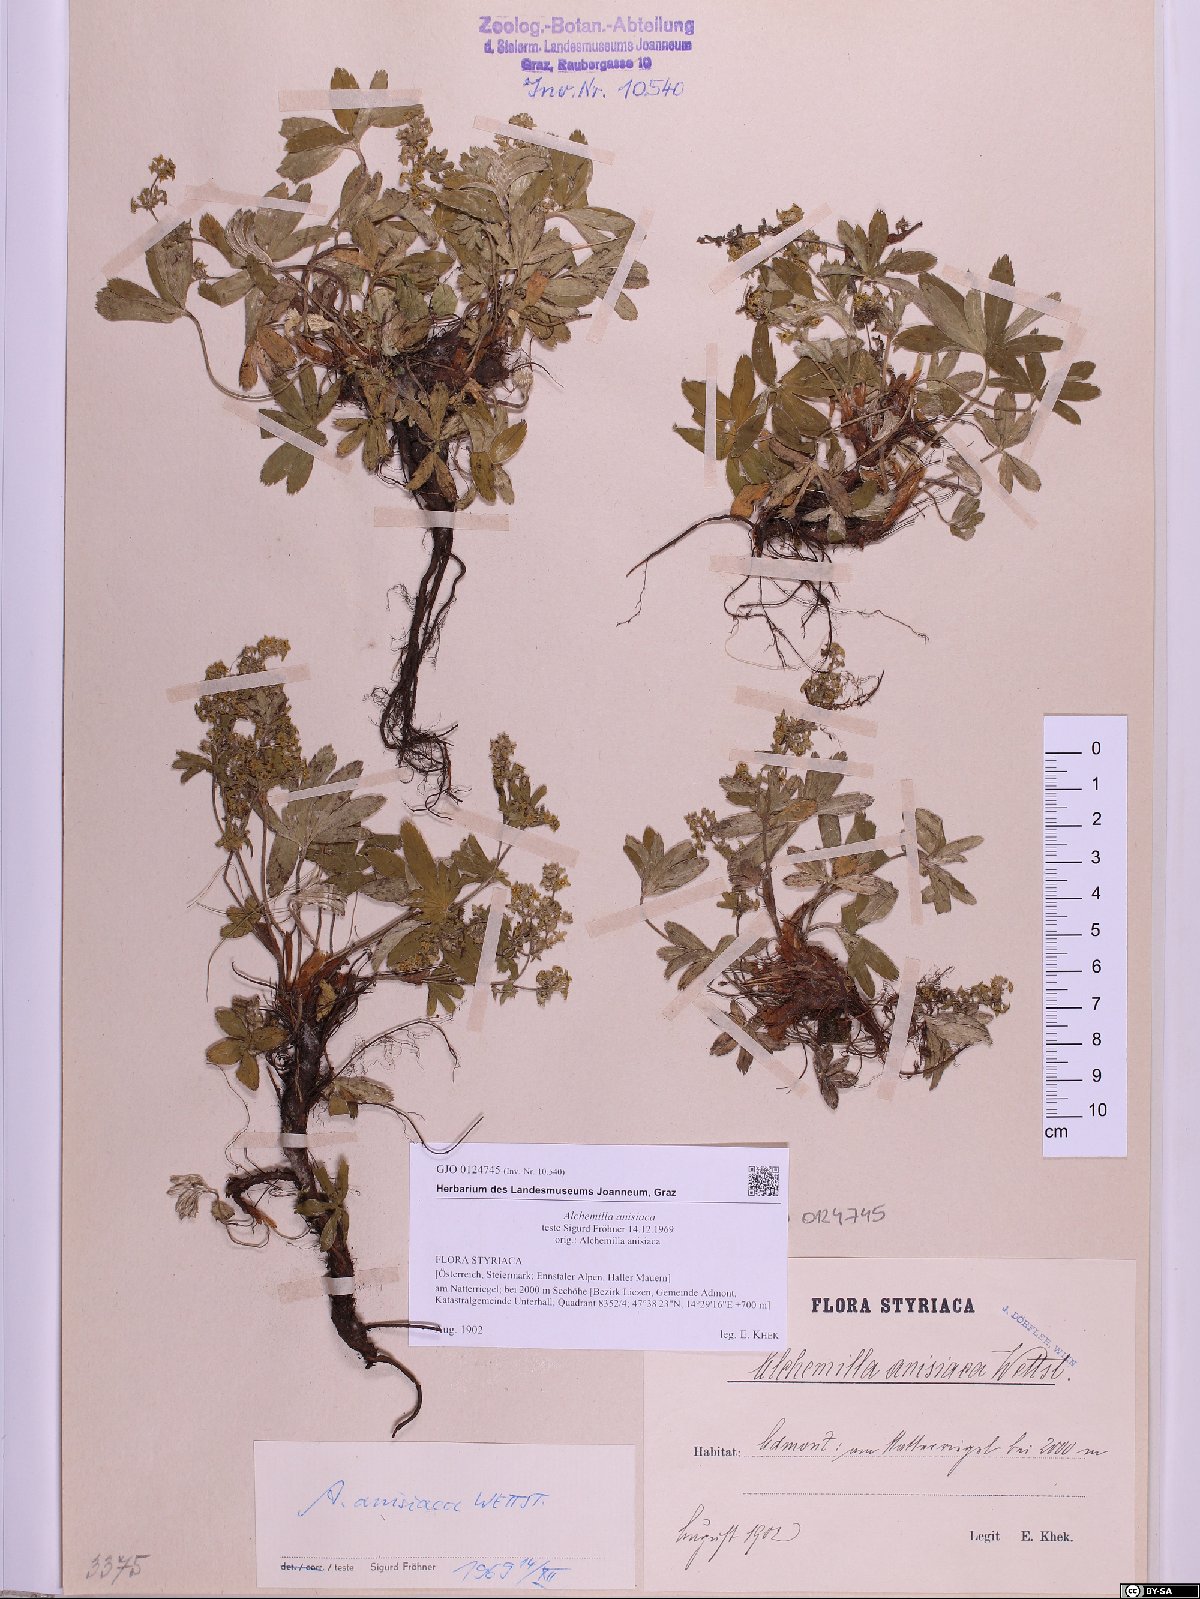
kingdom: Plantae
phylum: Tracheophyta
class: Magnoliopsida
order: Rosales
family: Rosaceae
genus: Alchemilla
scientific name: Alchemilla anisiaca
